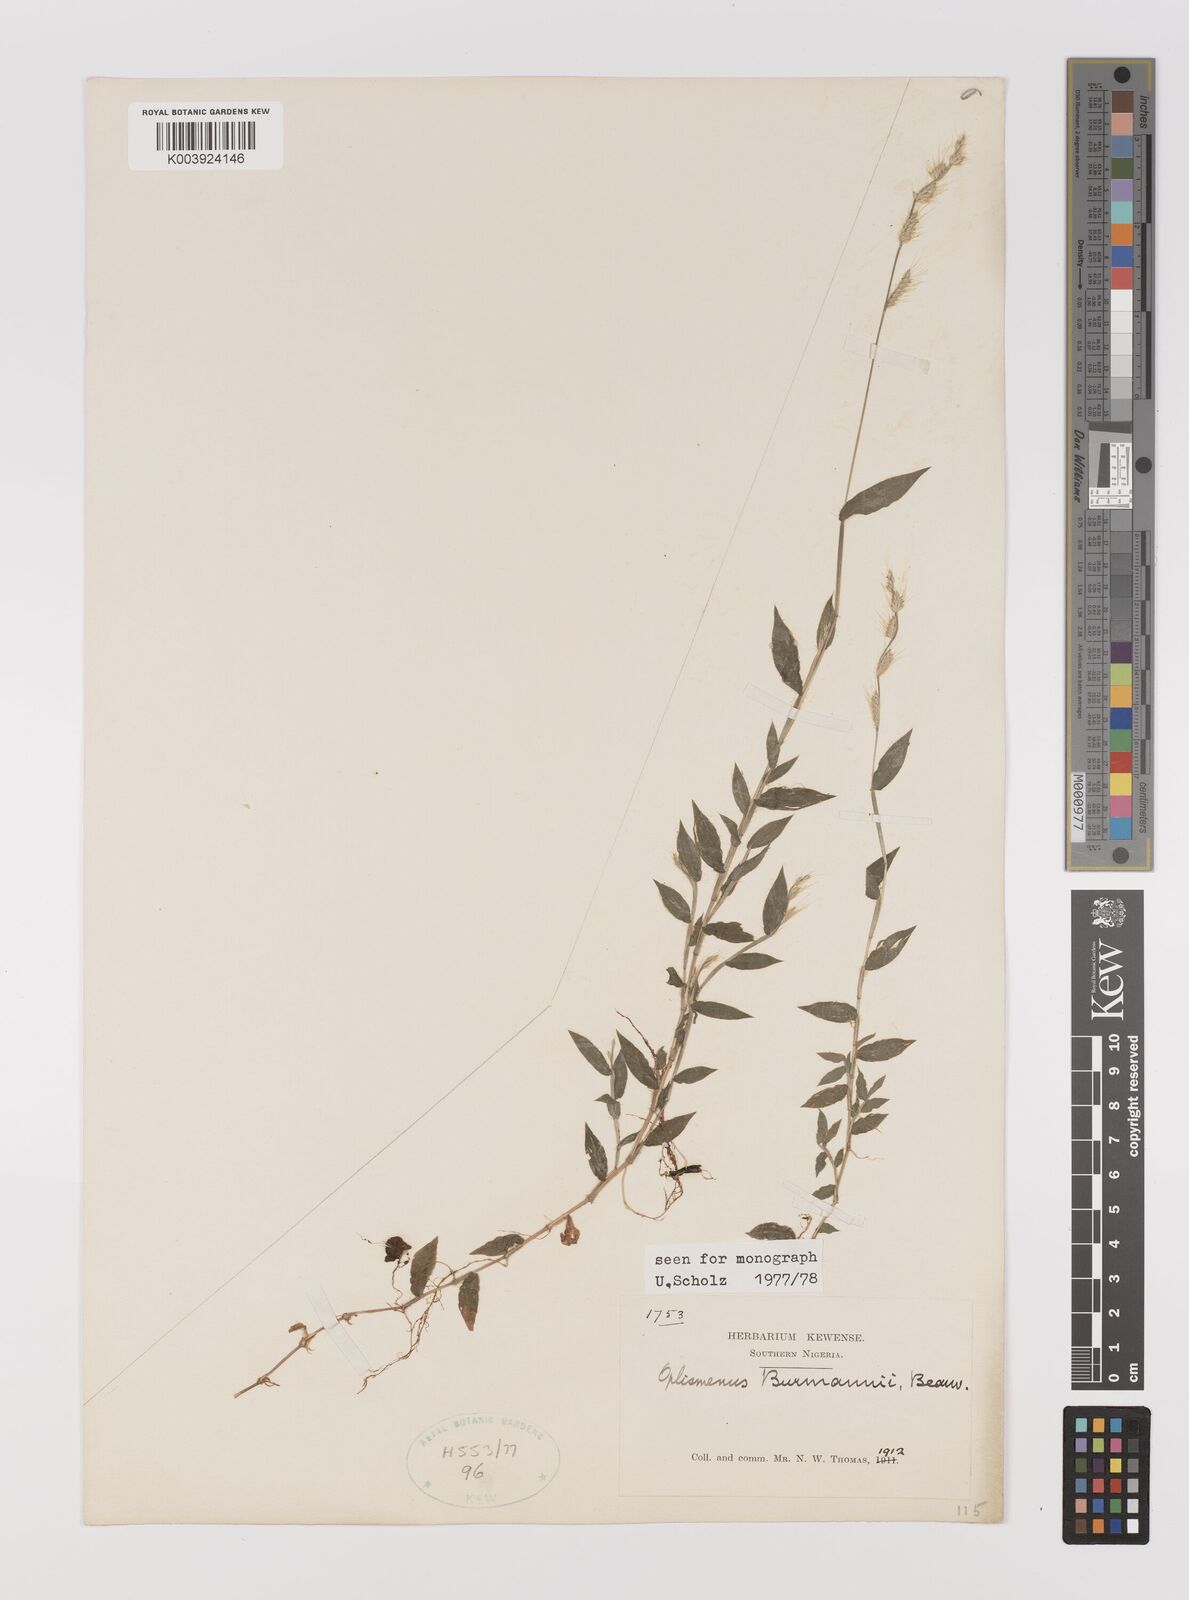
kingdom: Plantae
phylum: Tracheophyta
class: Liliopsida
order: Poales
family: Poaceae
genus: Oplismenus
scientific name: Oplismenus burmanni
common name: Burmann's basketgrass
